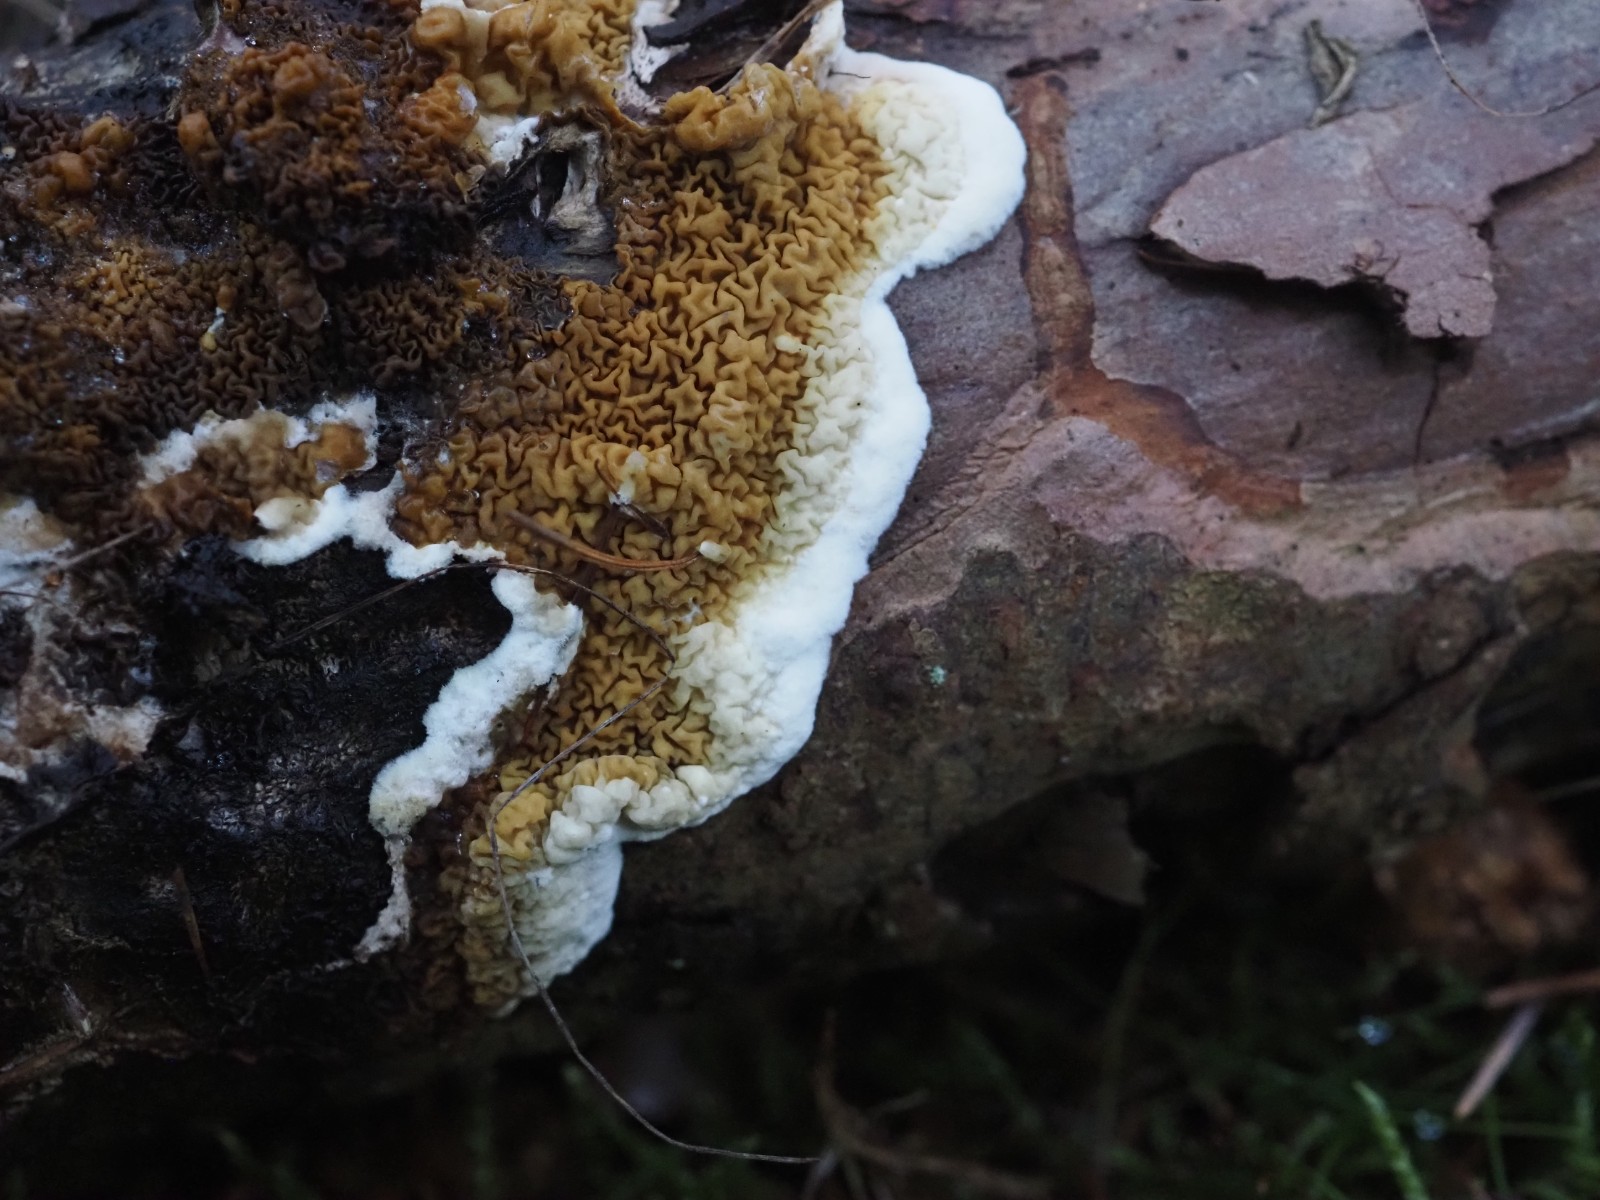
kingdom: Fungi
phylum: Basidiomycota
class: Agaricomycetes
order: Boletales
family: Serpulaceae
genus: Serpula
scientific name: Serpula himantioides
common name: tyndkødet hussvamp
